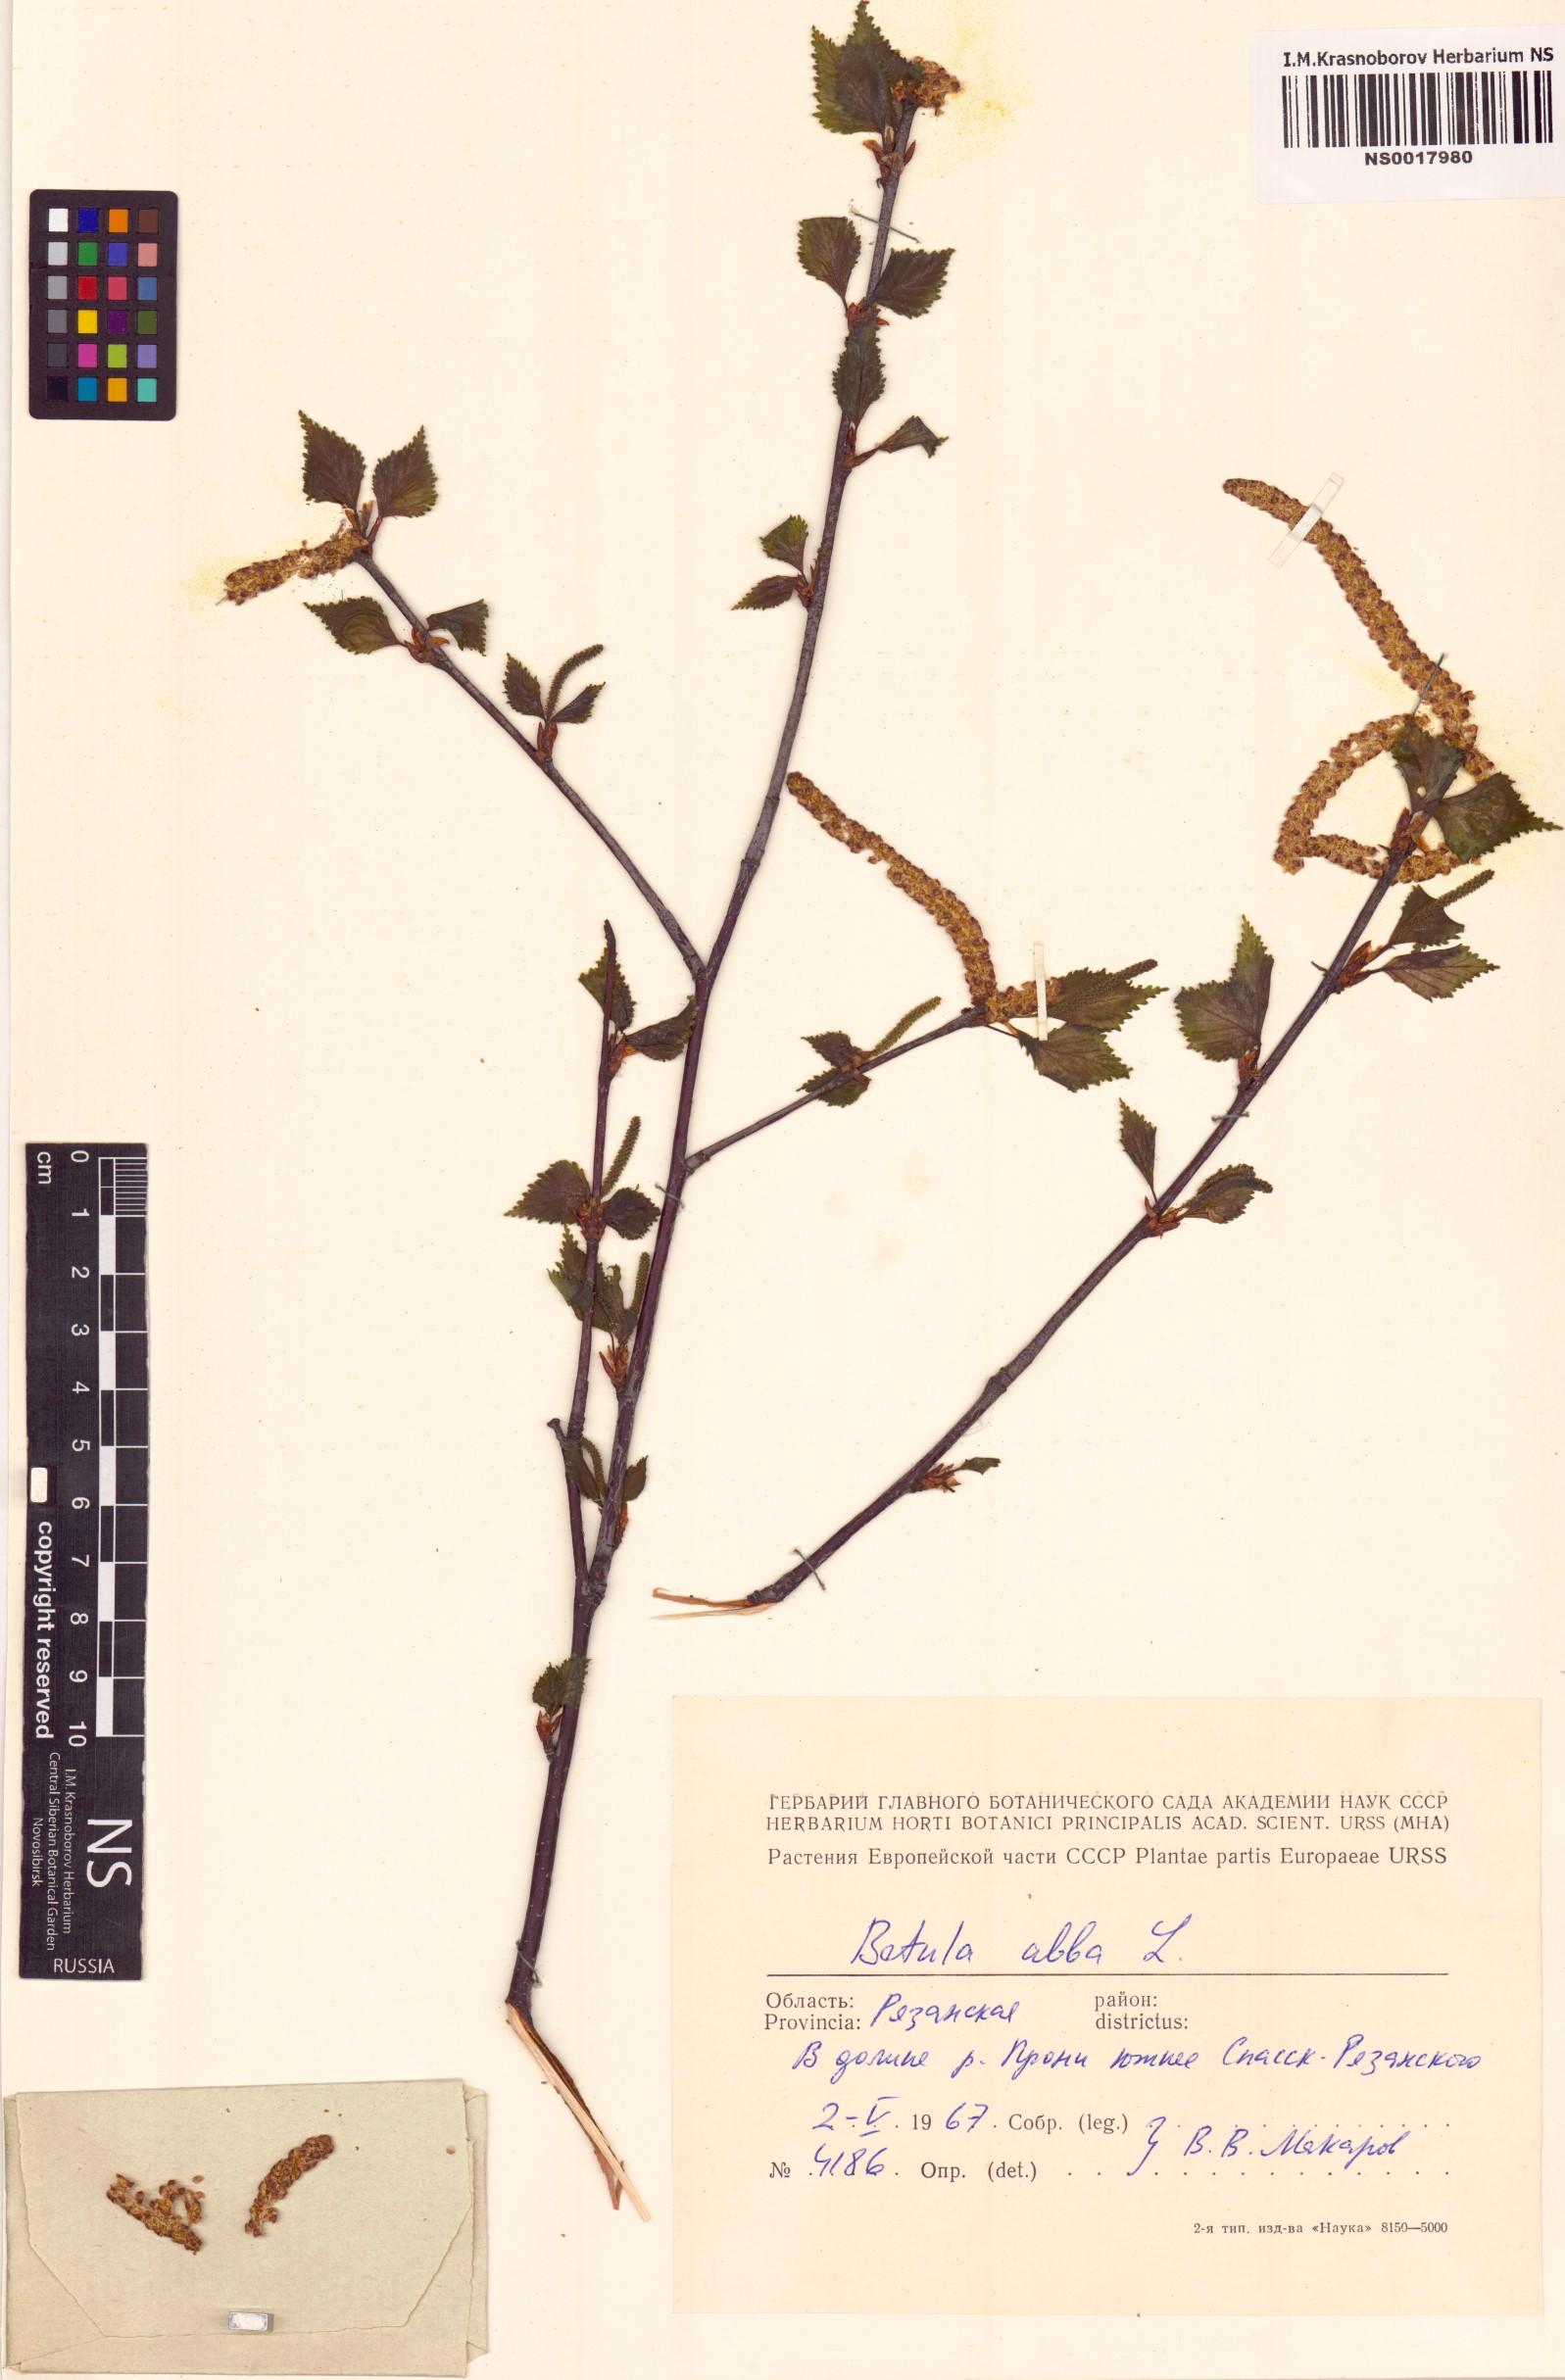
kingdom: Plantae
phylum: Tracheophyta
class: Magnoliopsida
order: Fagales
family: Betulaceae
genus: Betula
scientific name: Betula pubescens
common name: Downy birch
